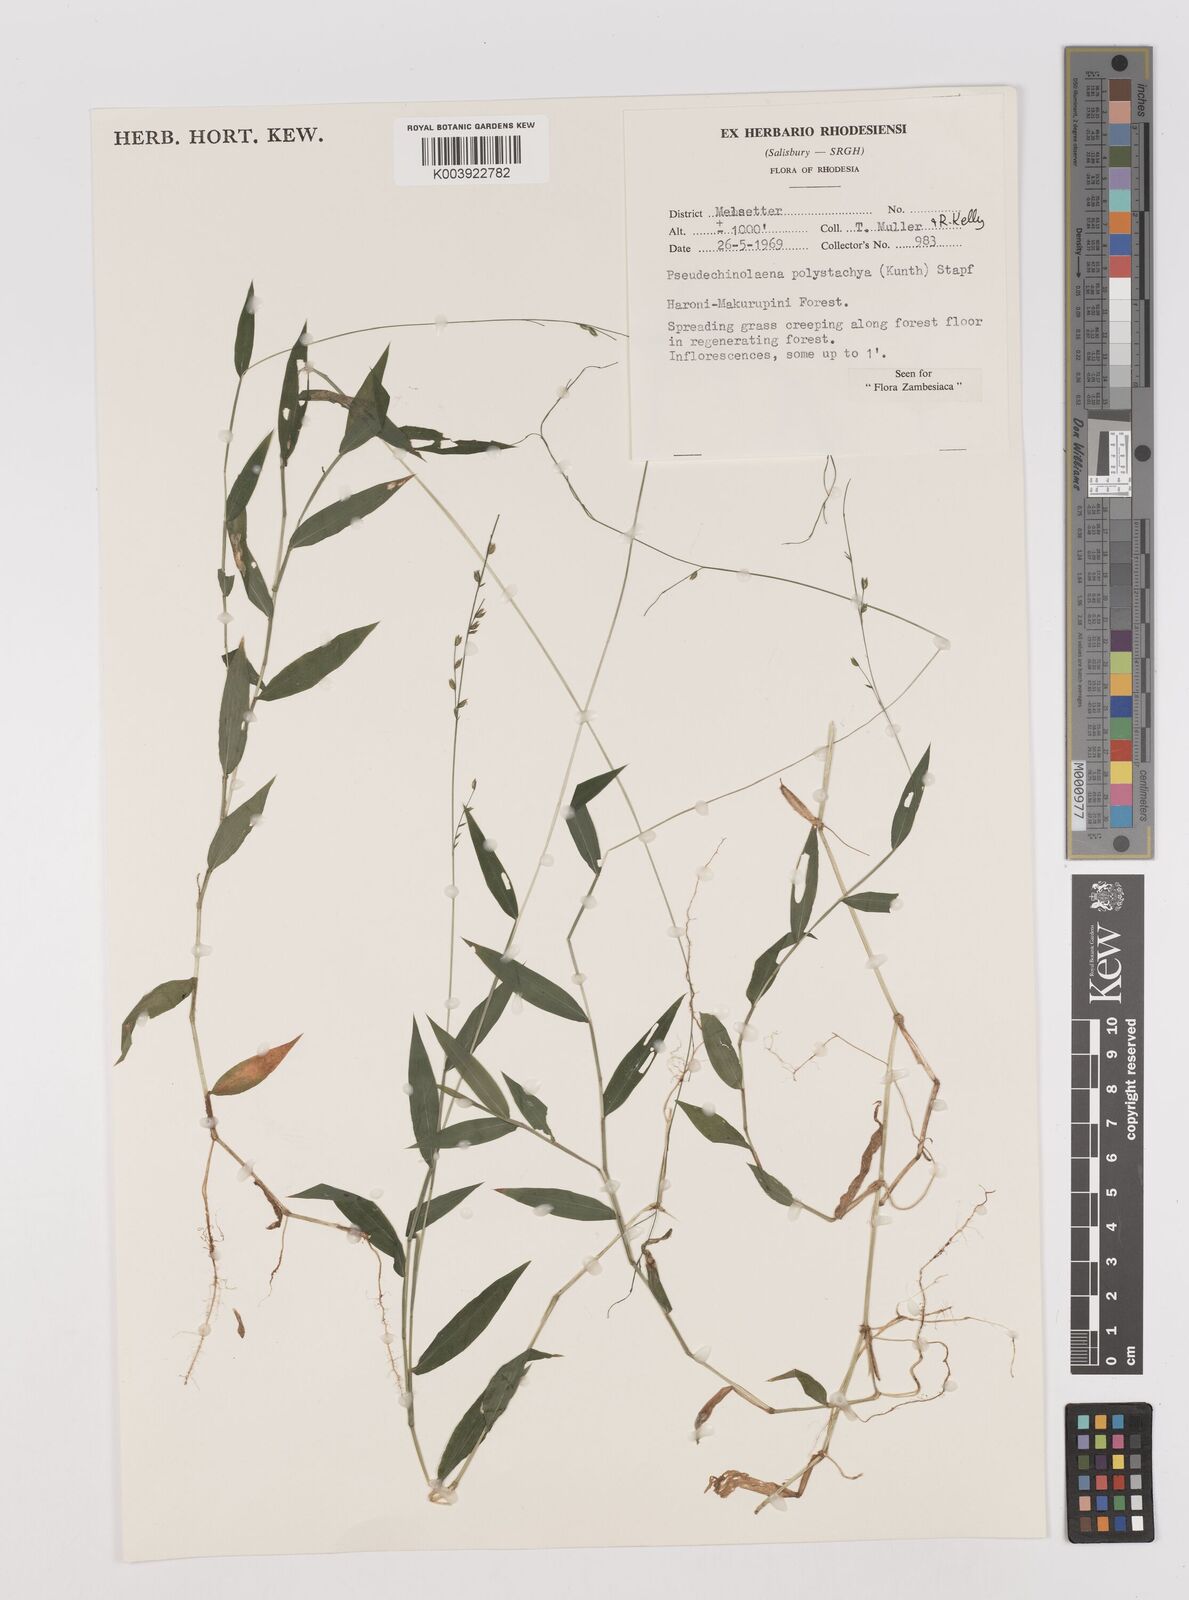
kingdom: Plantae
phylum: Tracheophyta
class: Liliopsida
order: Poales
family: Poaceae
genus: Pseudechinolaena
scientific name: Pseudechinolaena polystachya
